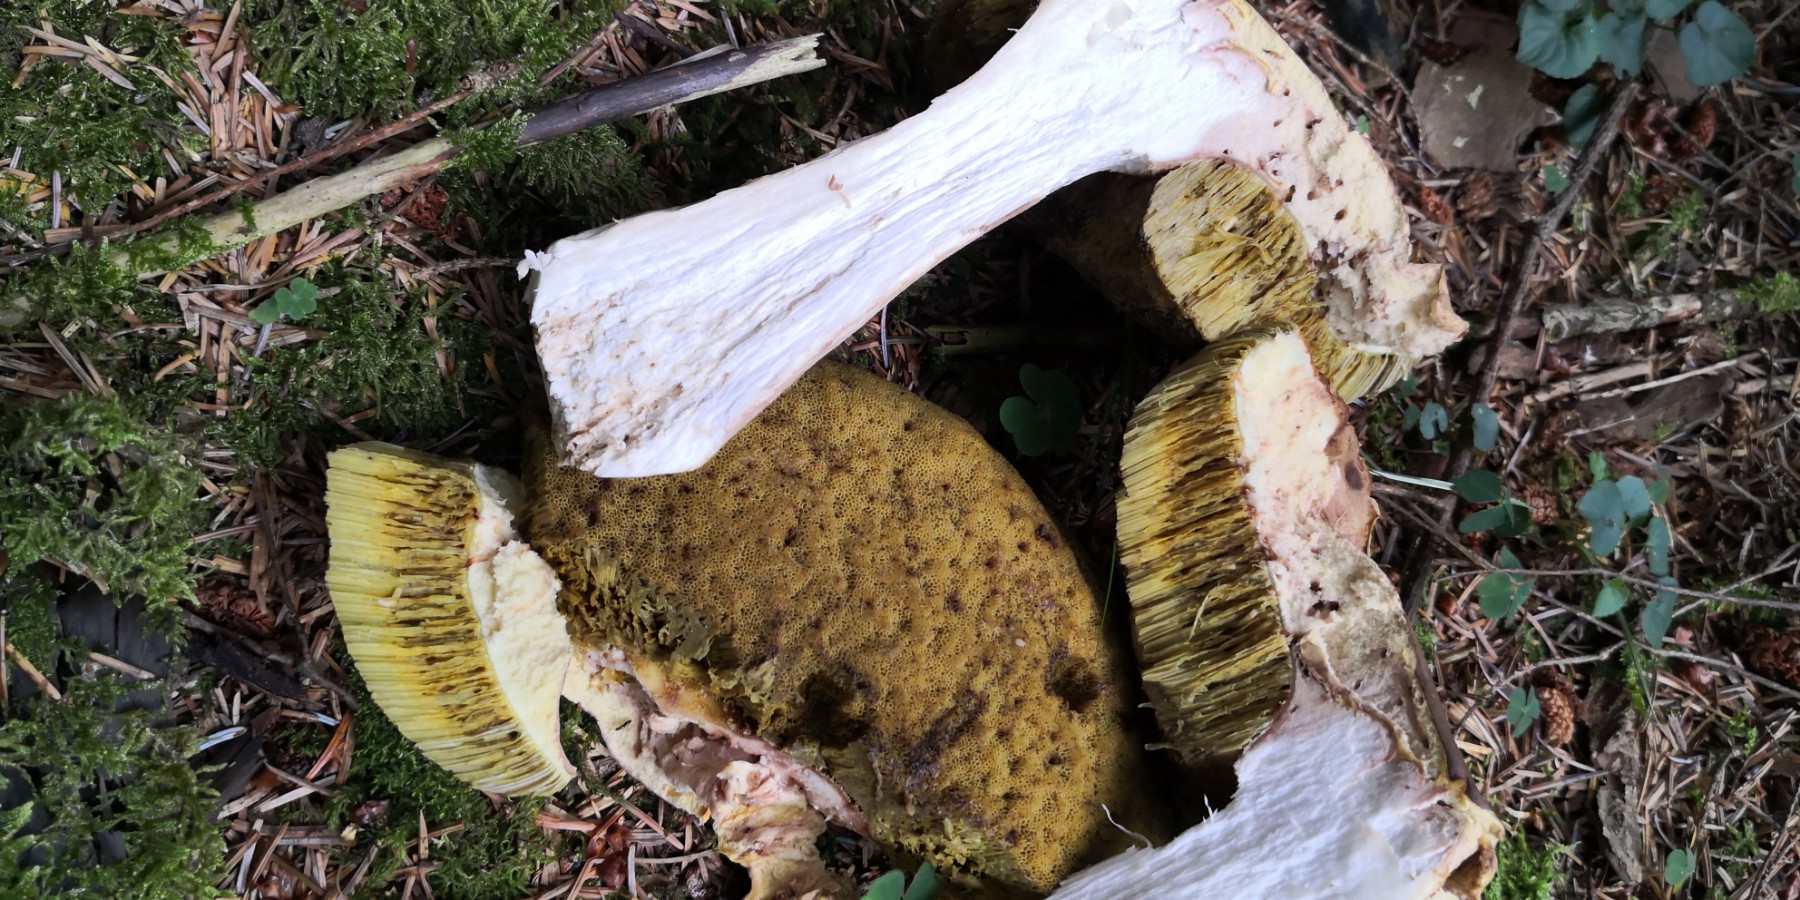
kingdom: Fungi
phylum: Basidiomycota
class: Agaricomycetes
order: Boletales
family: Boletaceae
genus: Boletus
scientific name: Boletus edulis
